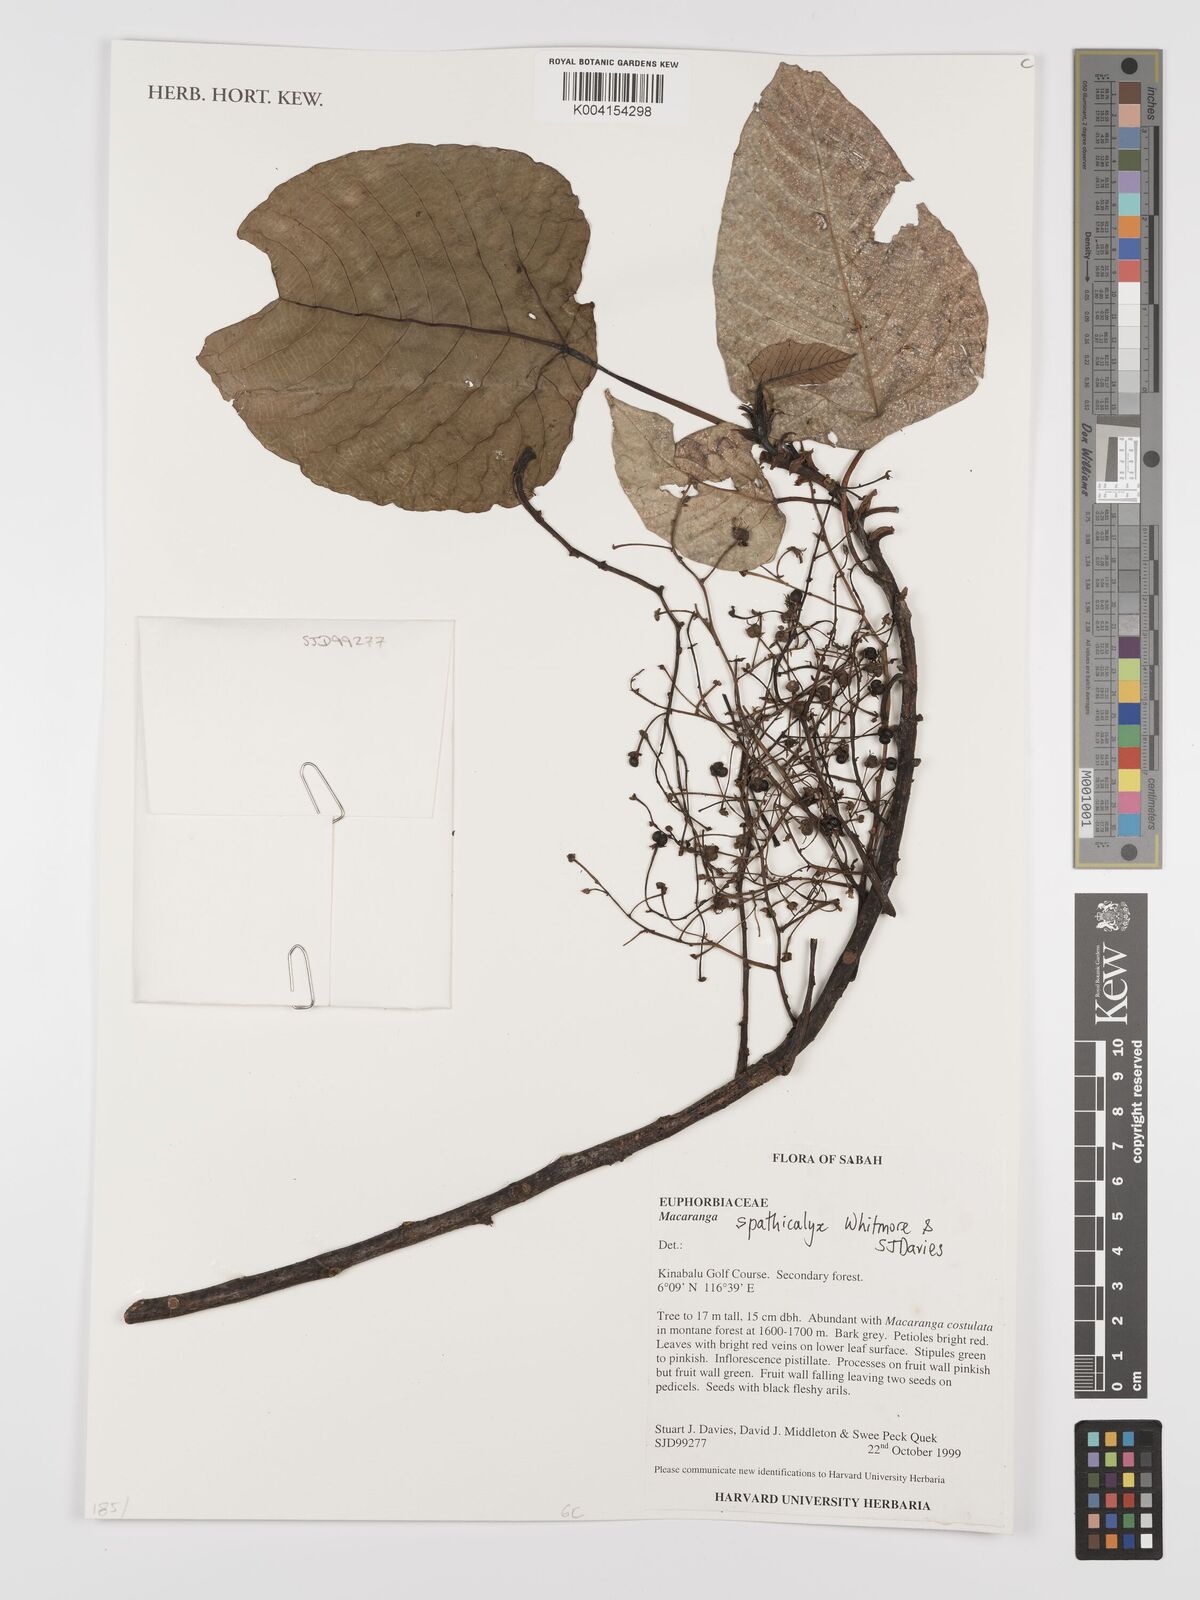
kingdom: Plantae
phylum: Tracheophyta
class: Magnoliopsida
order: Malpighiales
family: Euphorbiaceae
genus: Macaranga
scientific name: Macaranga spathicalyx
